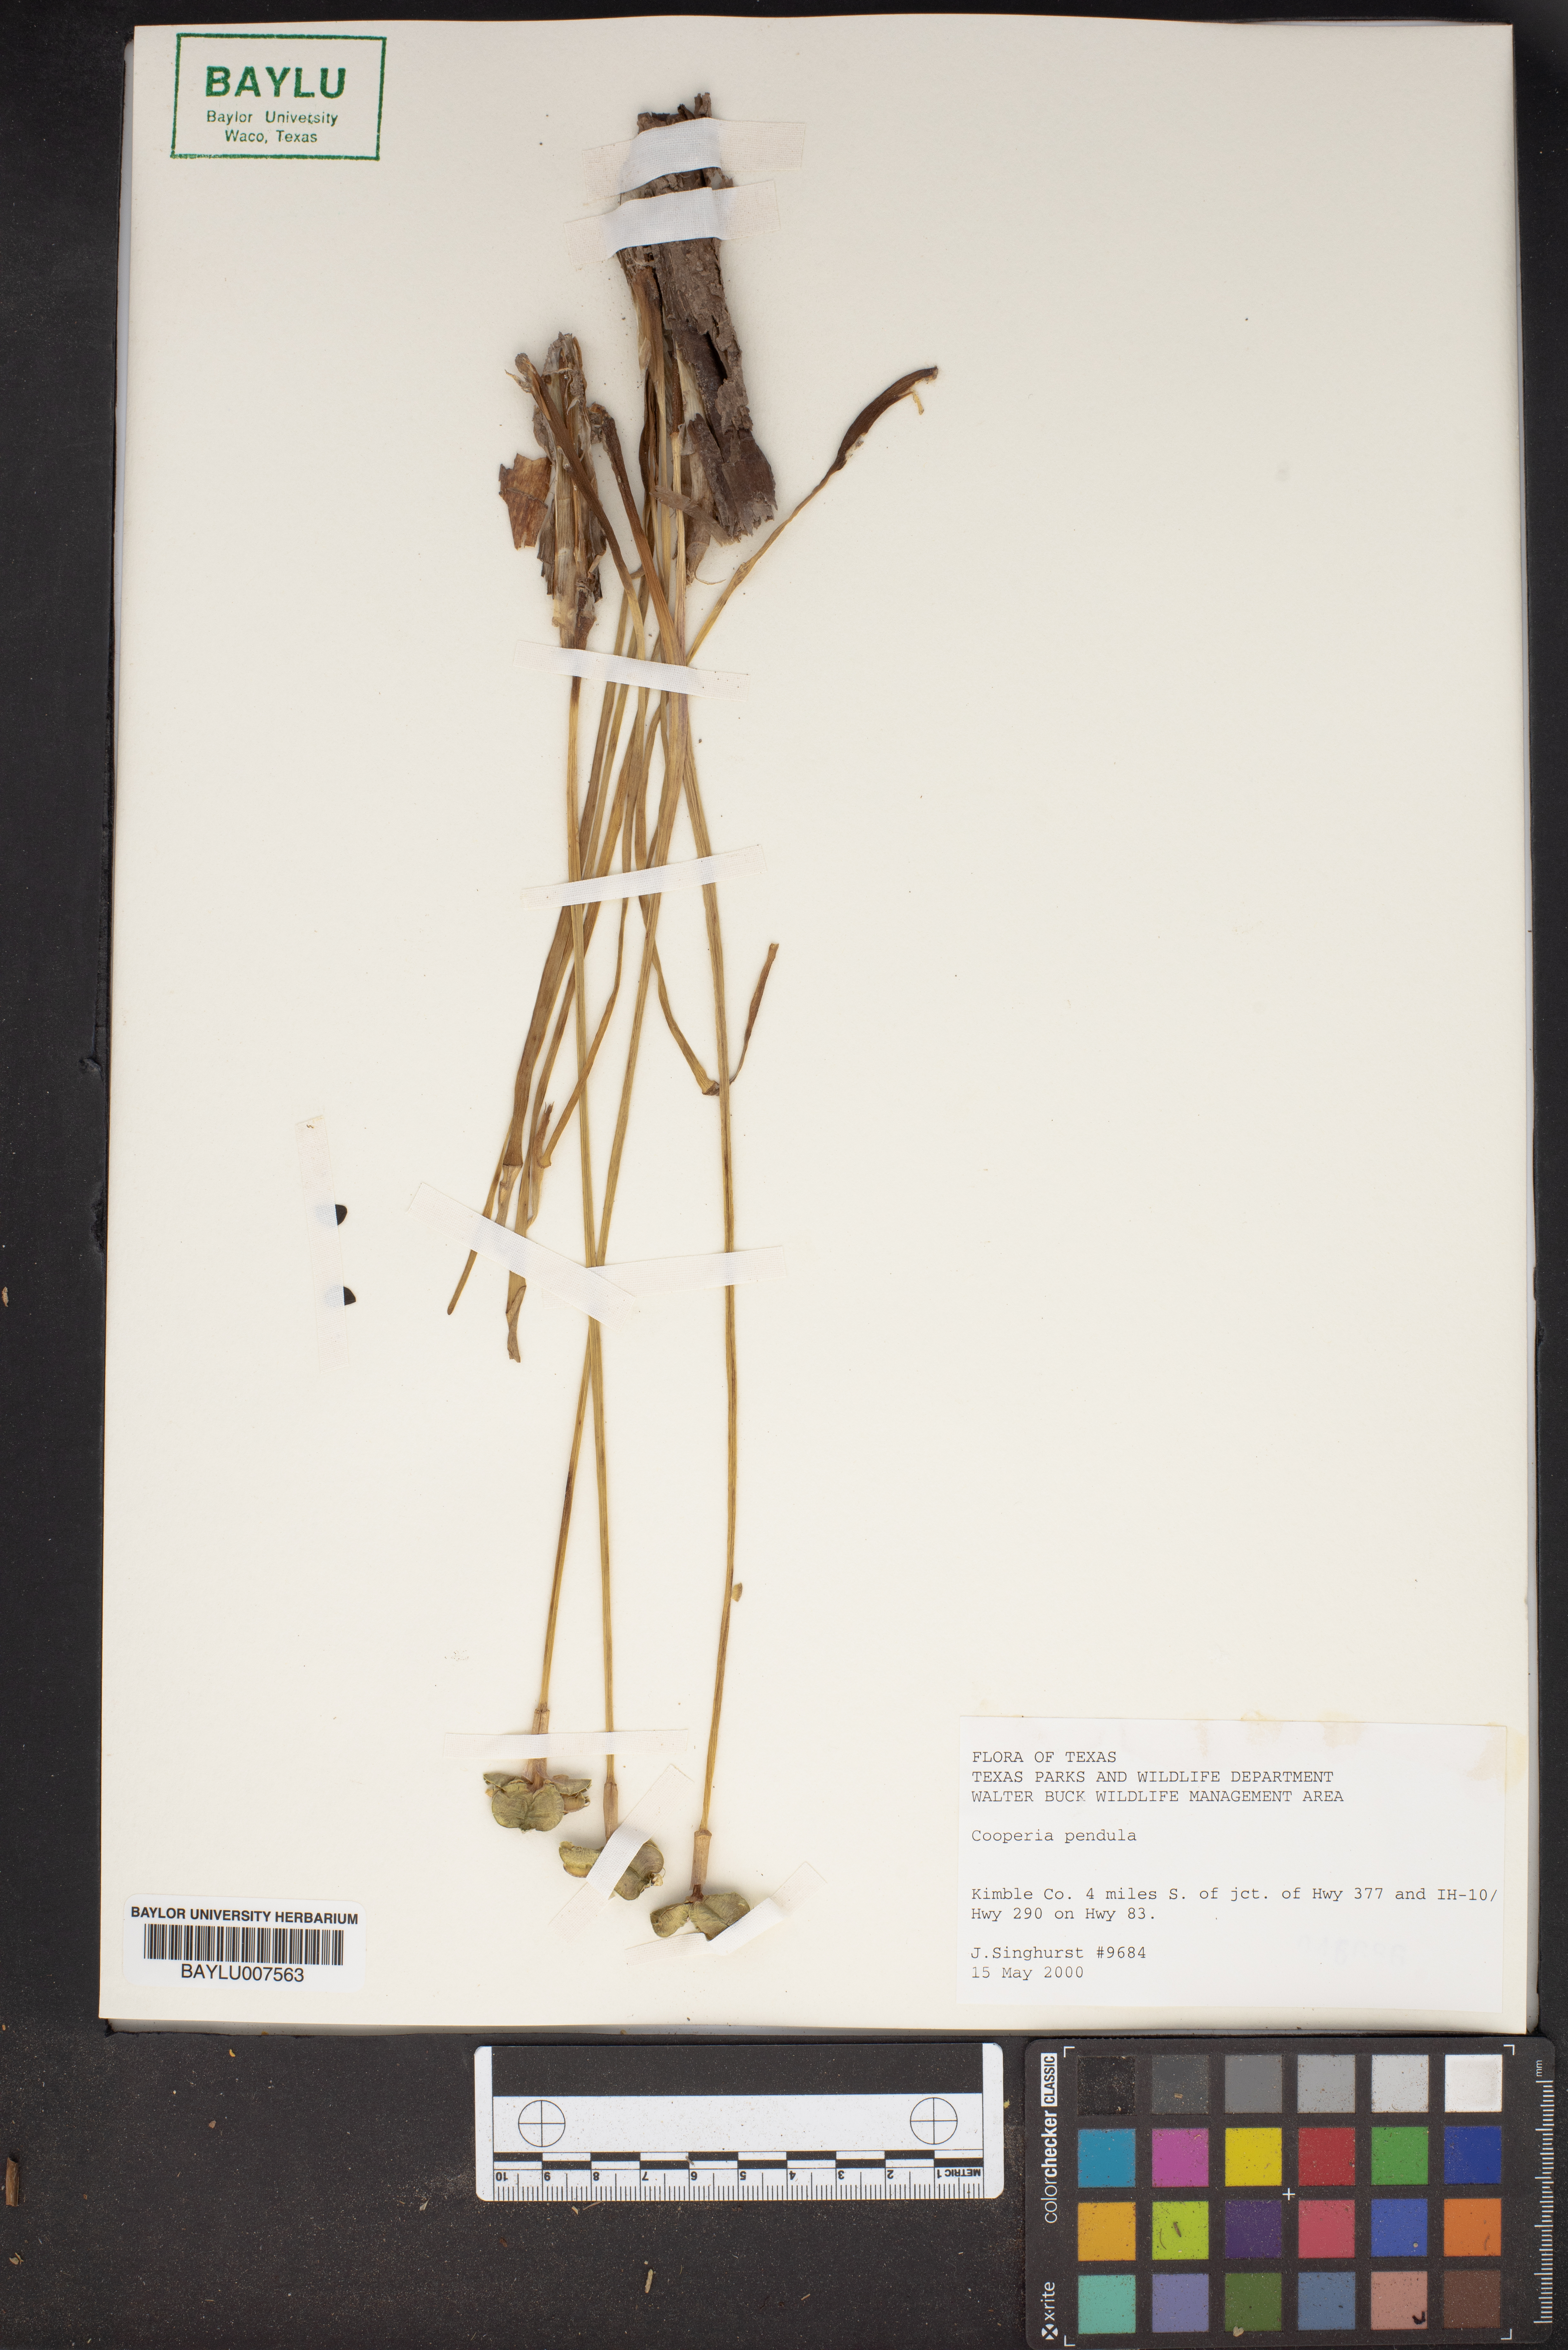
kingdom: Plantae
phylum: Tracheophyta
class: Liliopsida
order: Asparagales
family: Amaryllidaceae
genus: Zephyranthes
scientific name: Zephyranthes drummondii
